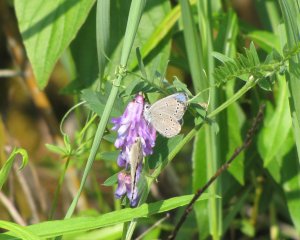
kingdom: Animalia
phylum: Arthropoda
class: Insecta
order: Lepidoptera
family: Lycaenidae
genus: Glaucopsyche
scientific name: Glaucopsyche lygdamus
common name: Silvery Blue
